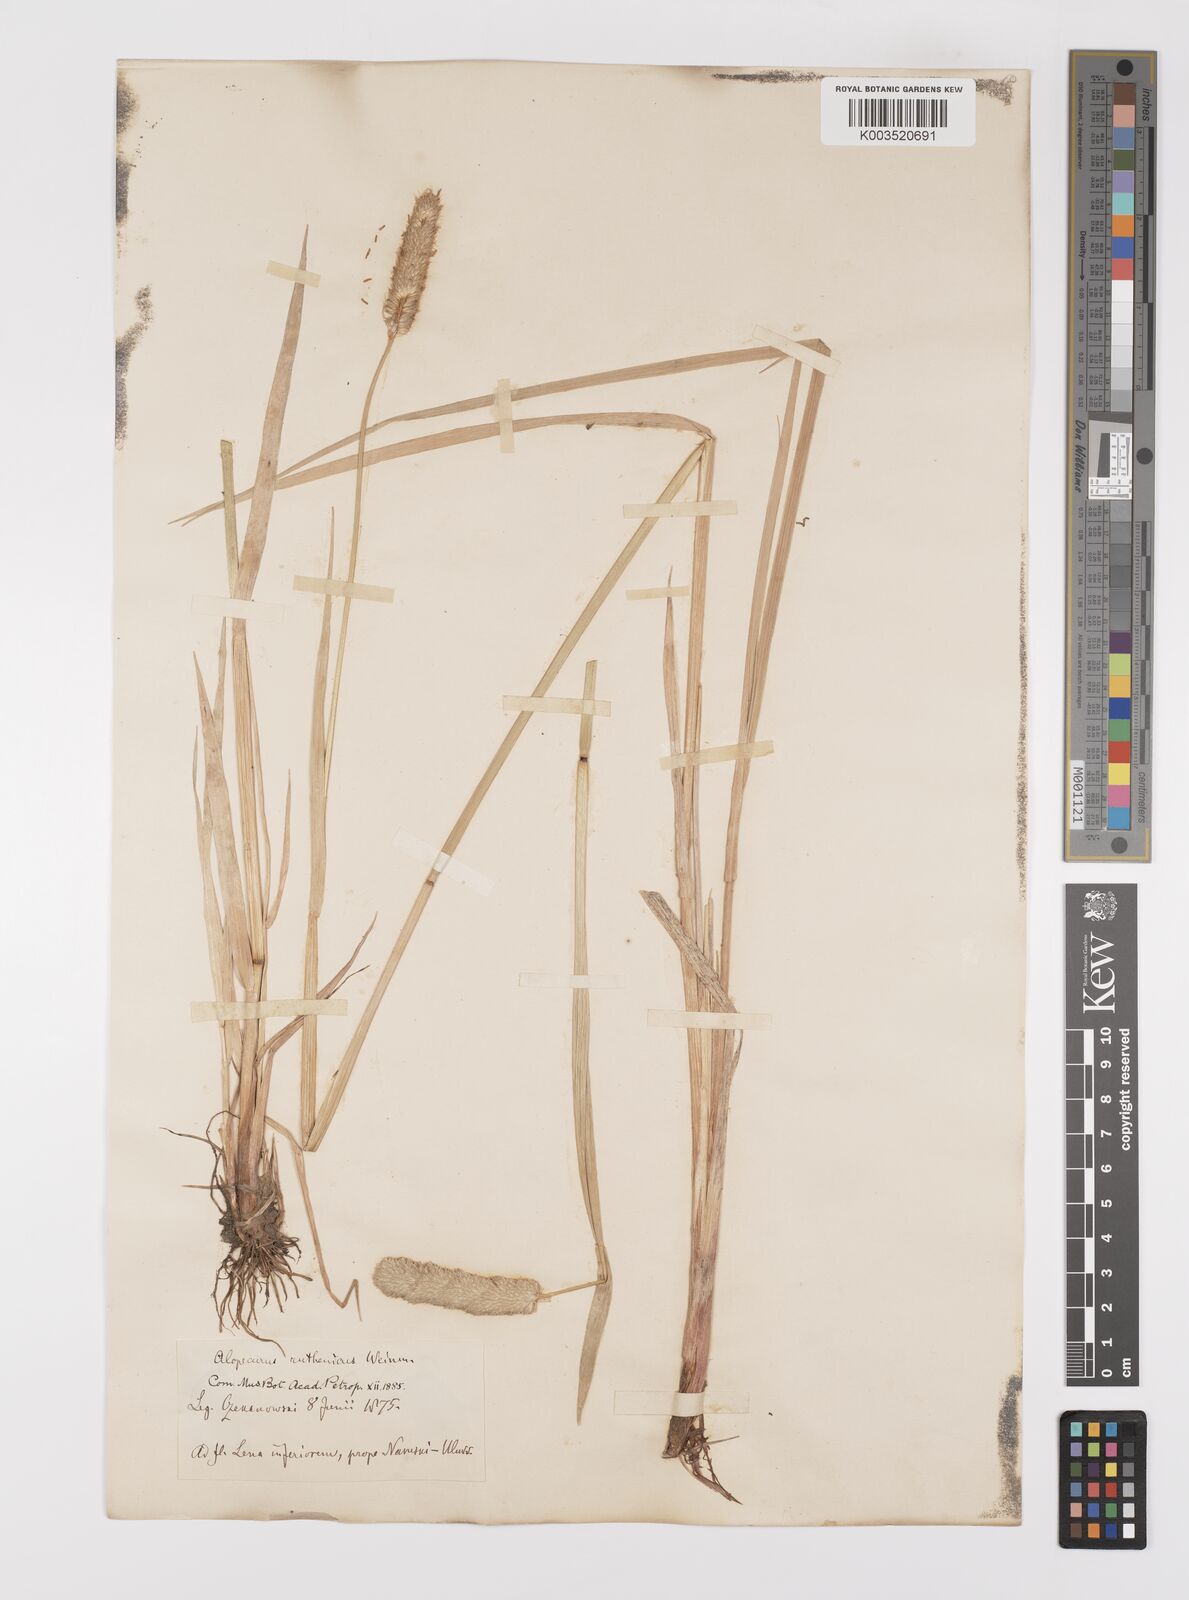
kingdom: Plantae
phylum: Tracheophyta
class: Liliopsida
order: Poales
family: Poaceae
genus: Alopecurus
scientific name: Alopecurus arundinaceus
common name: Creeping meadow foxtail
